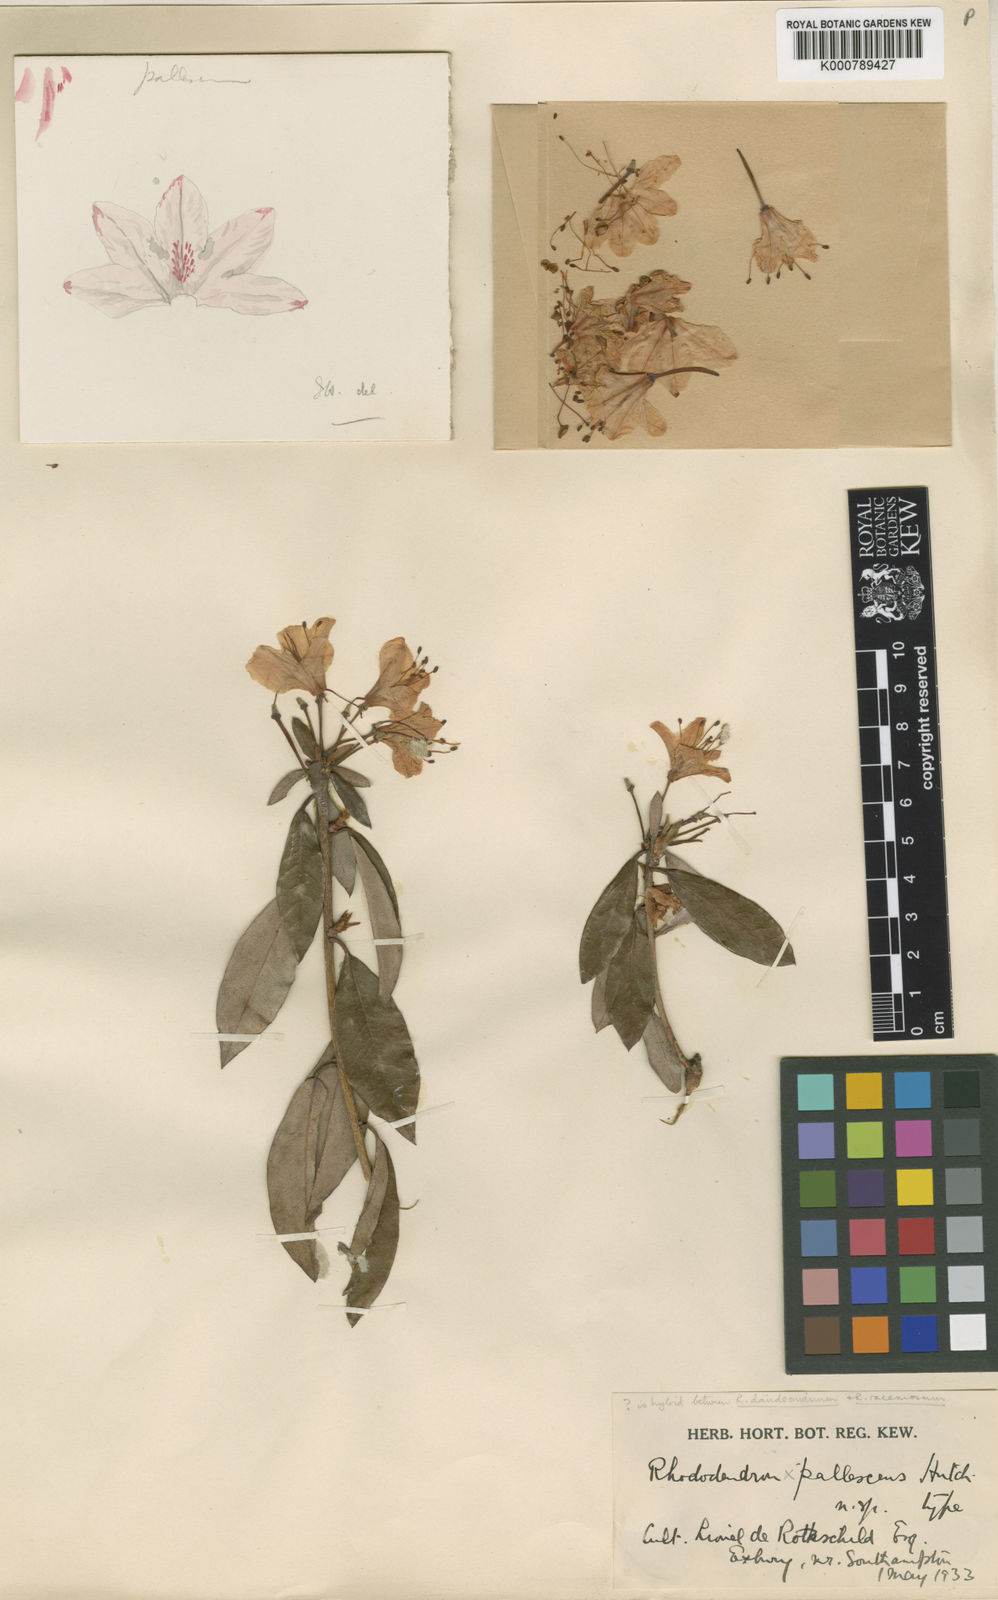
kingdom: Plantae
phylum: Tracheophyta
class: Magnoliopsida
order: Ericales
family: Ericaceae
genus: Rhododendron
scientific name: Rhododendron
